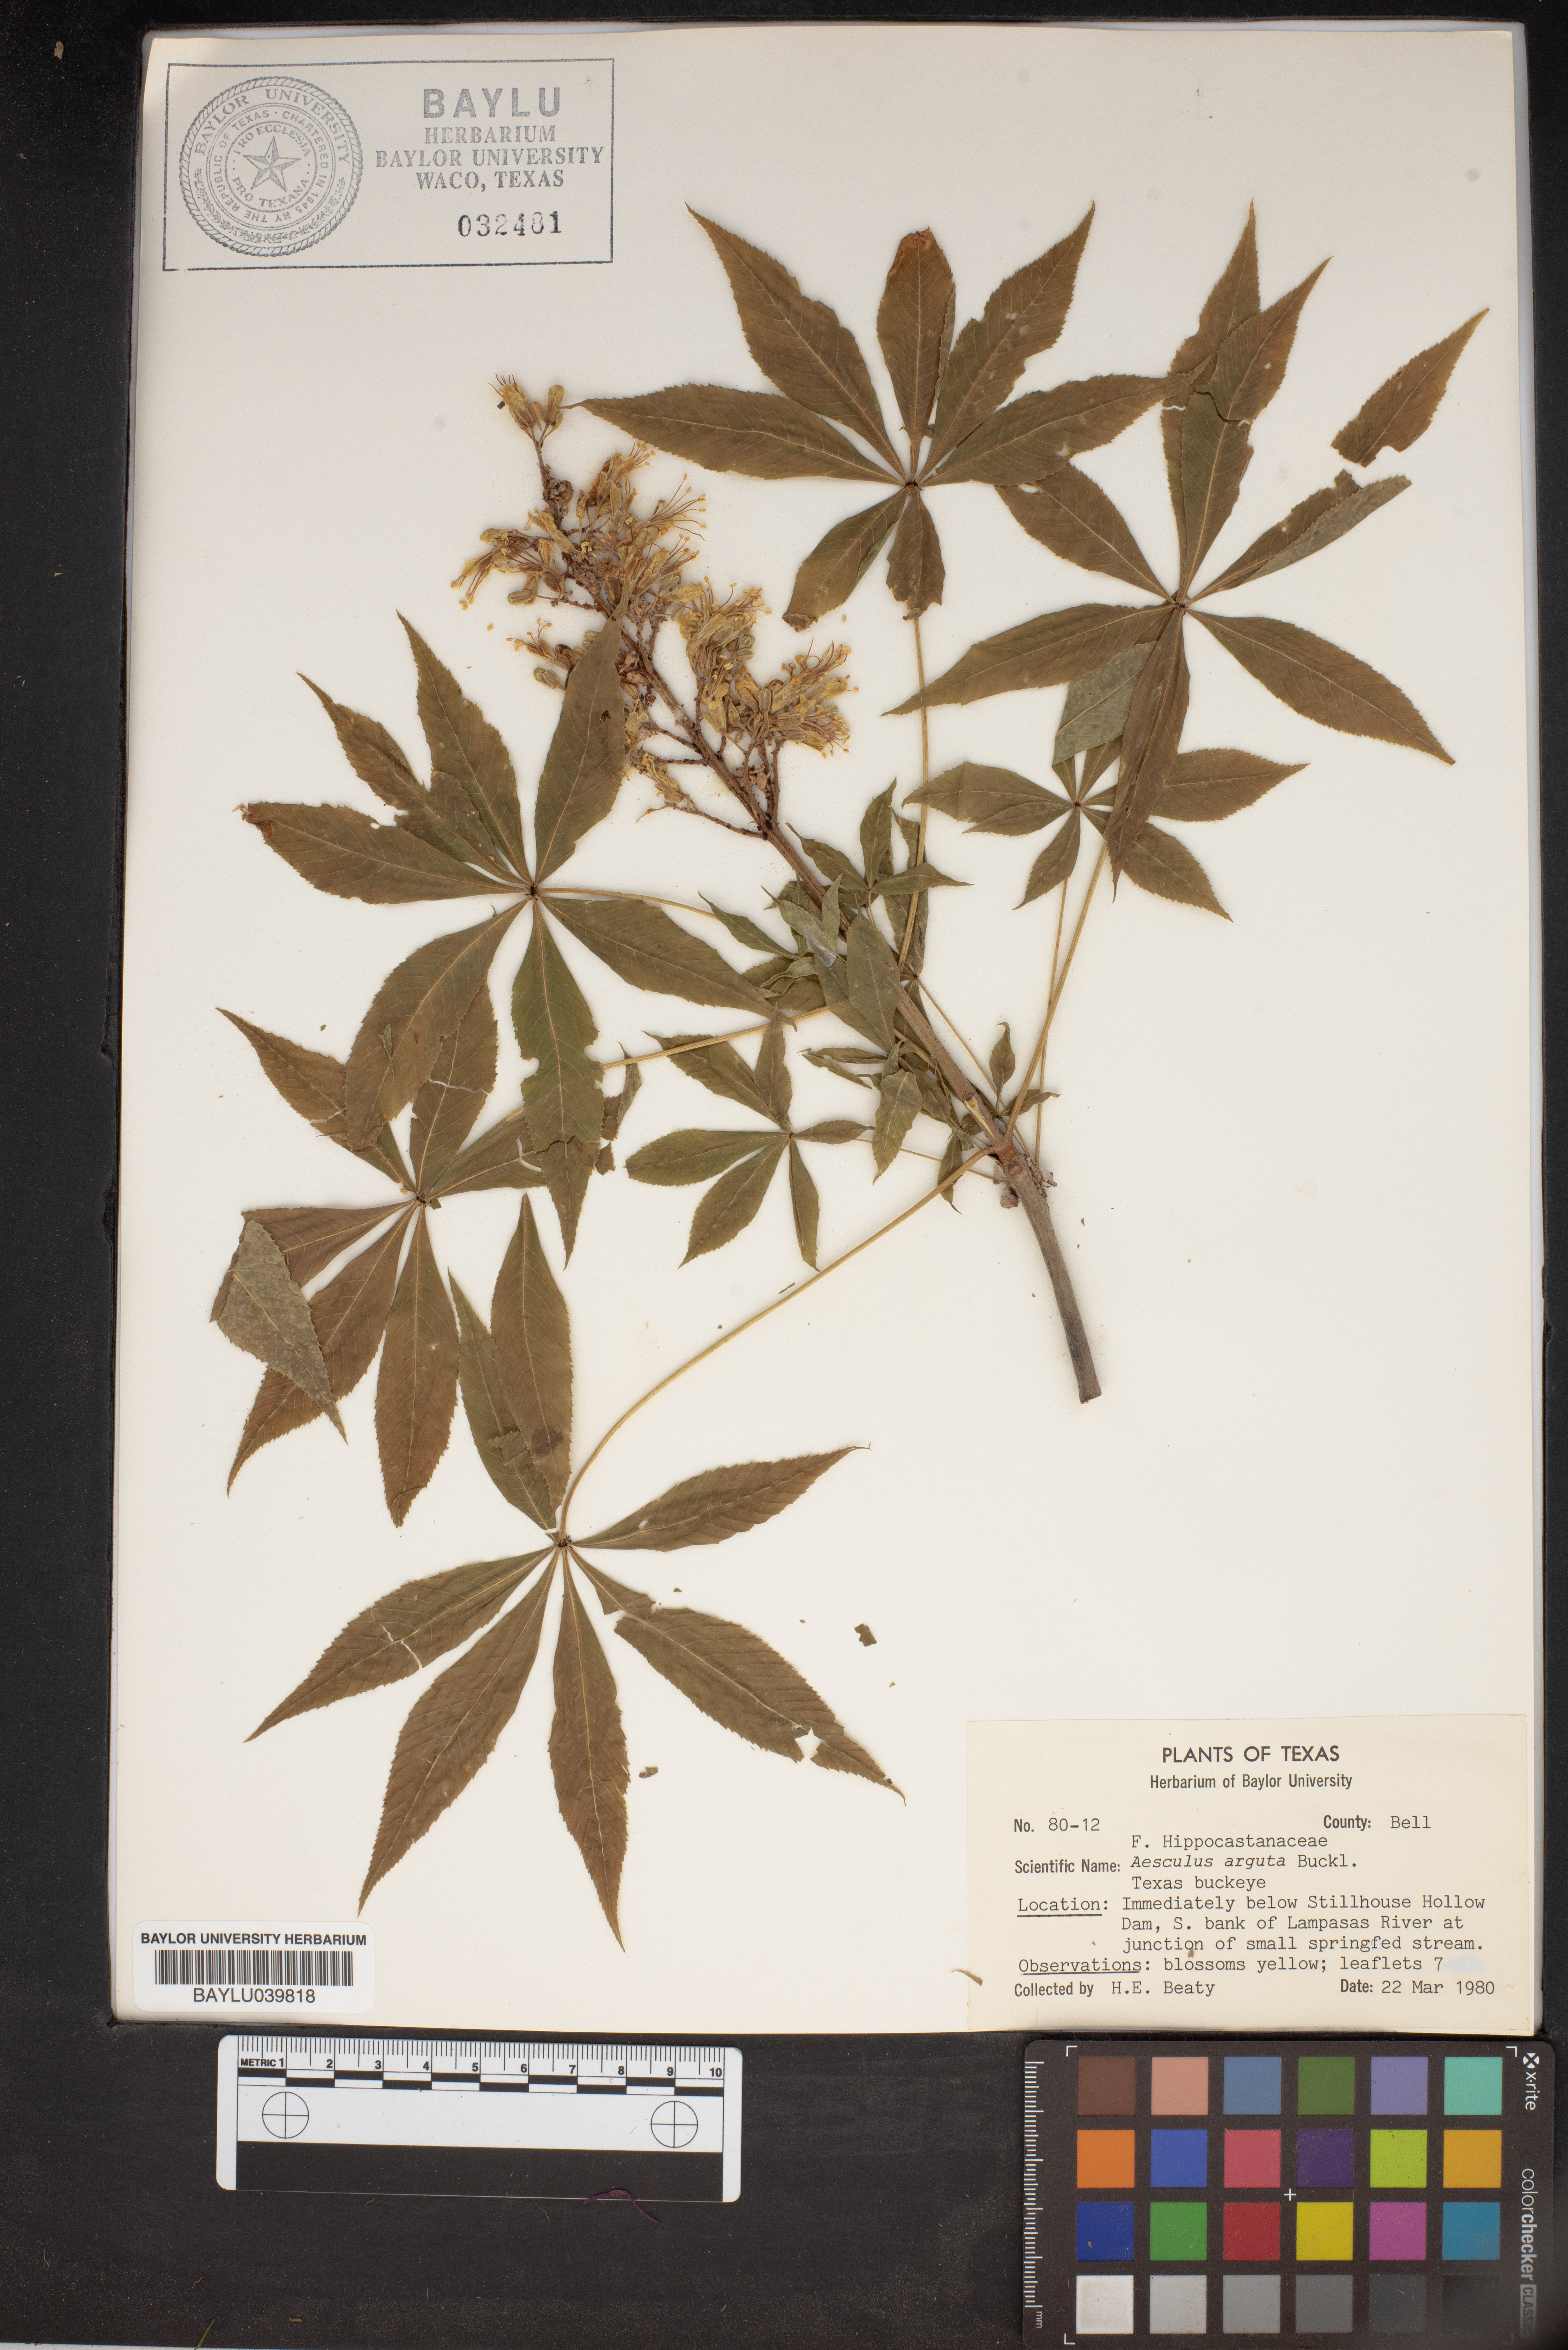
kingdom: Plantae
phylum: Tracheophyta
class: Magnoliopsida
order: Sapindales
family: Sapindaceae
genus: Aesculus
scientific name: Aesculus glabra
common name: Ohio buckeye
